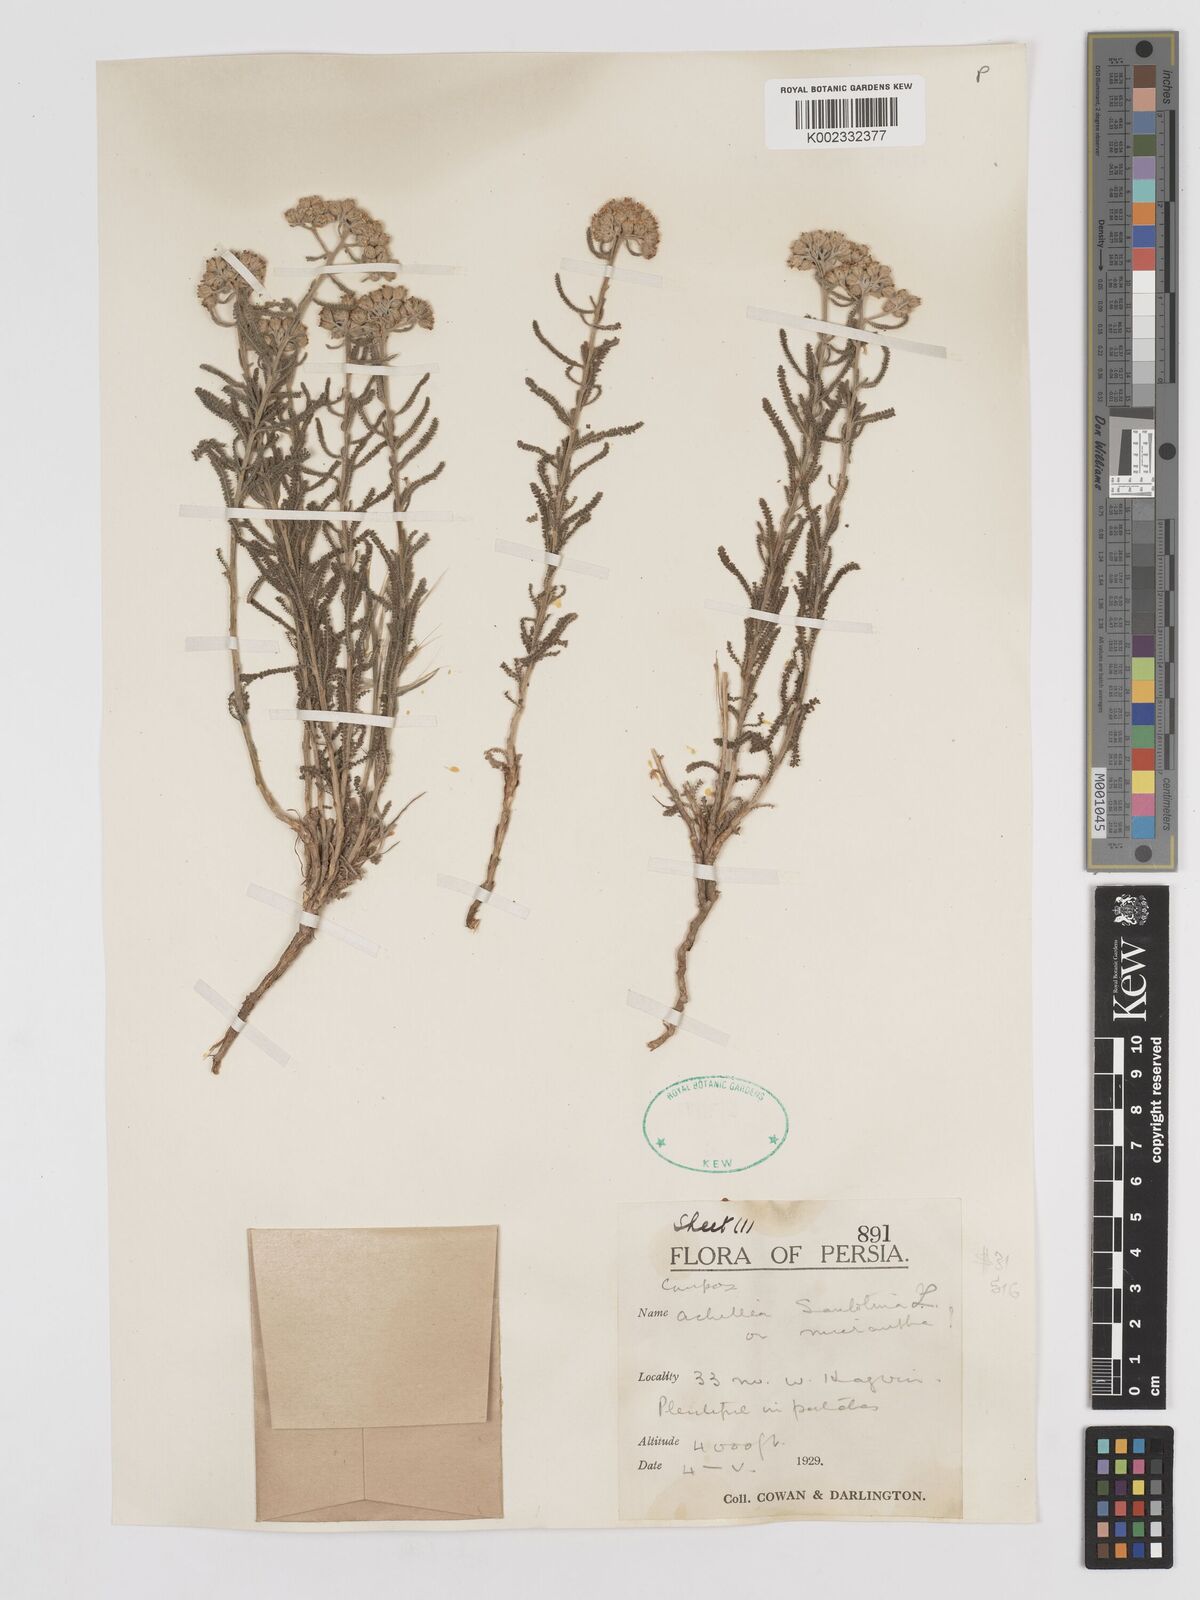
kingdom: Plantae
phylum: Tracheophyta
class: Magnoliopsida
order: Asterales
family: Asteraceae
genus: Achillea
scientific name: Achillea cretica
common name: Chamomile-leaved lavender-cotton
